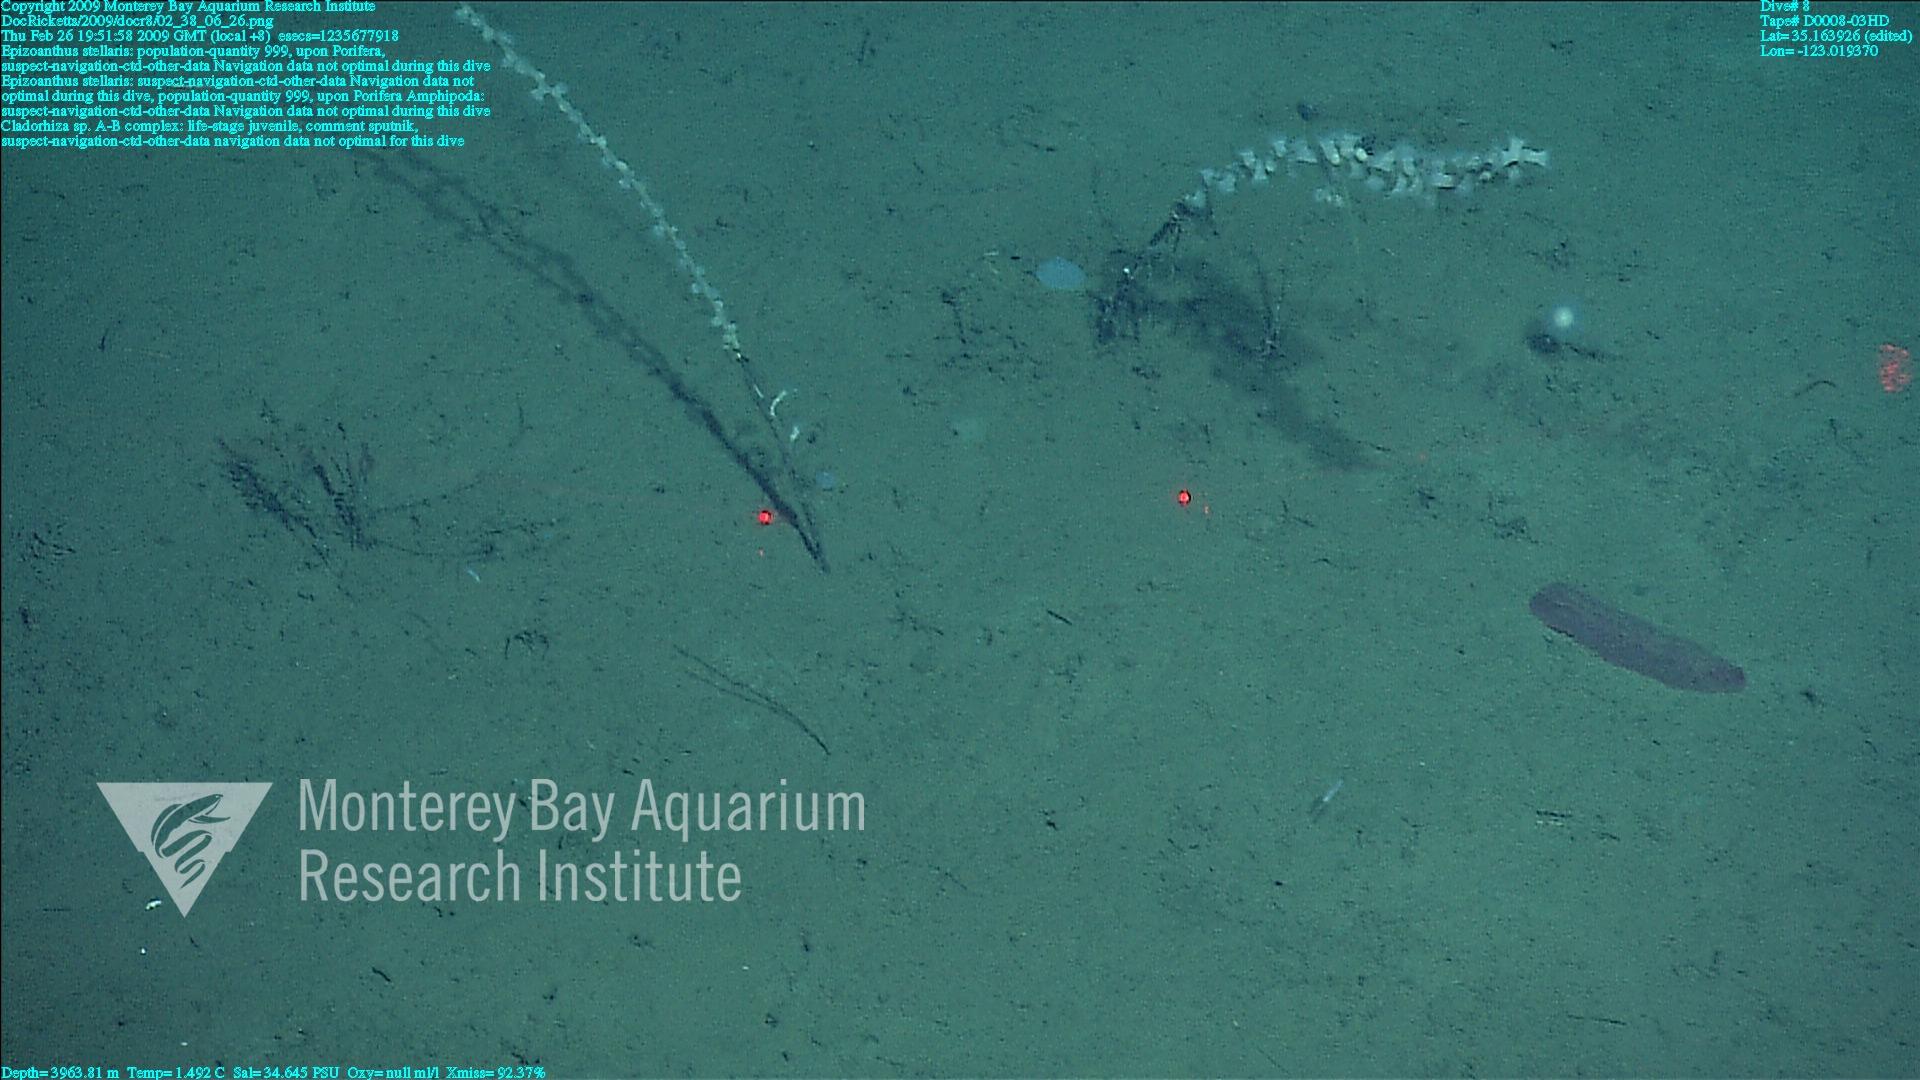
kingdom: Animalia
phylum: Porifera
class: Demospongiae
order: Poecilosclerida
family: Cladorhizidae
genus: Cladorhiza
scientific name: Cladorhiza
